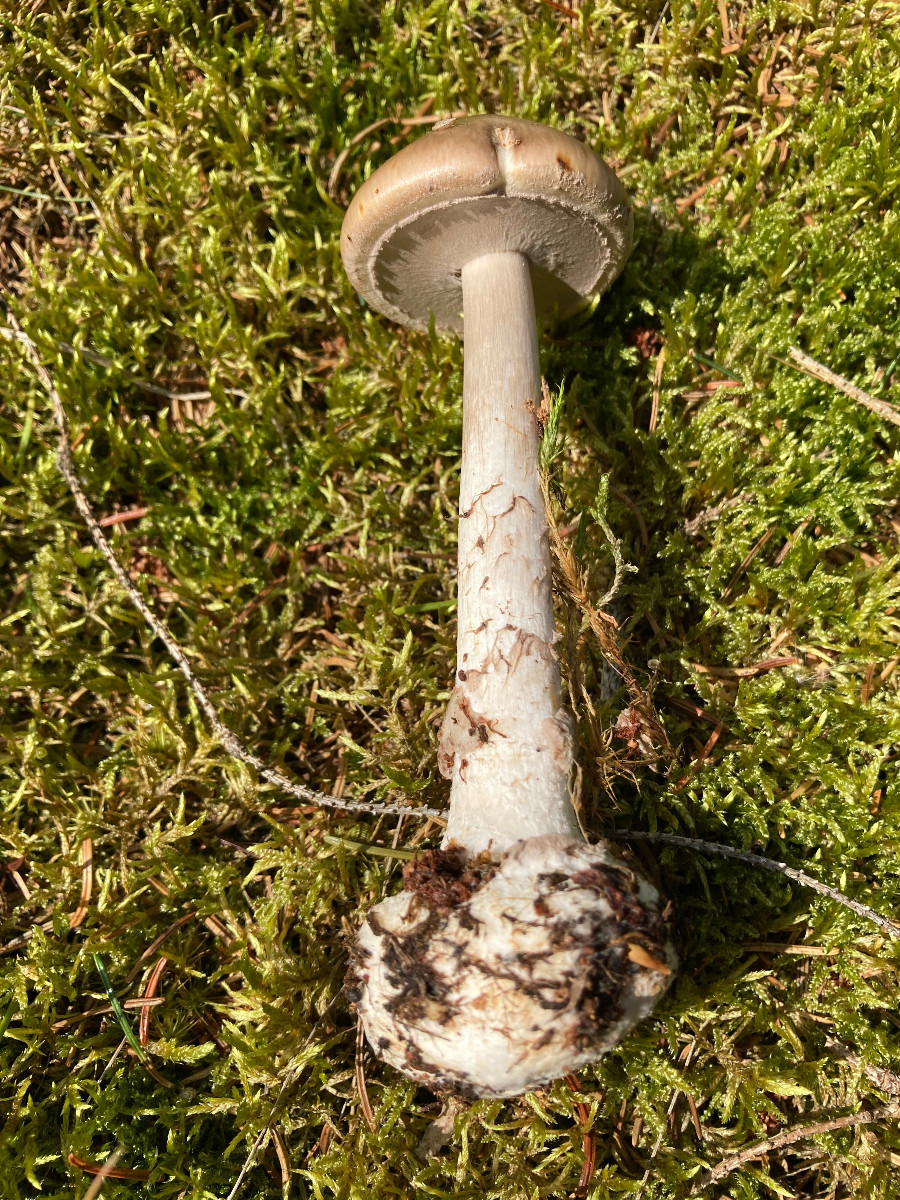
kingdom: Fungi
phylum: Basidiomycota
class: Agaricomycetes
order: Agaricales
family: Amanitaceae
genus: Amanita
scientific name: Amanita porphyria
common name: porfyr-fluesvamp
